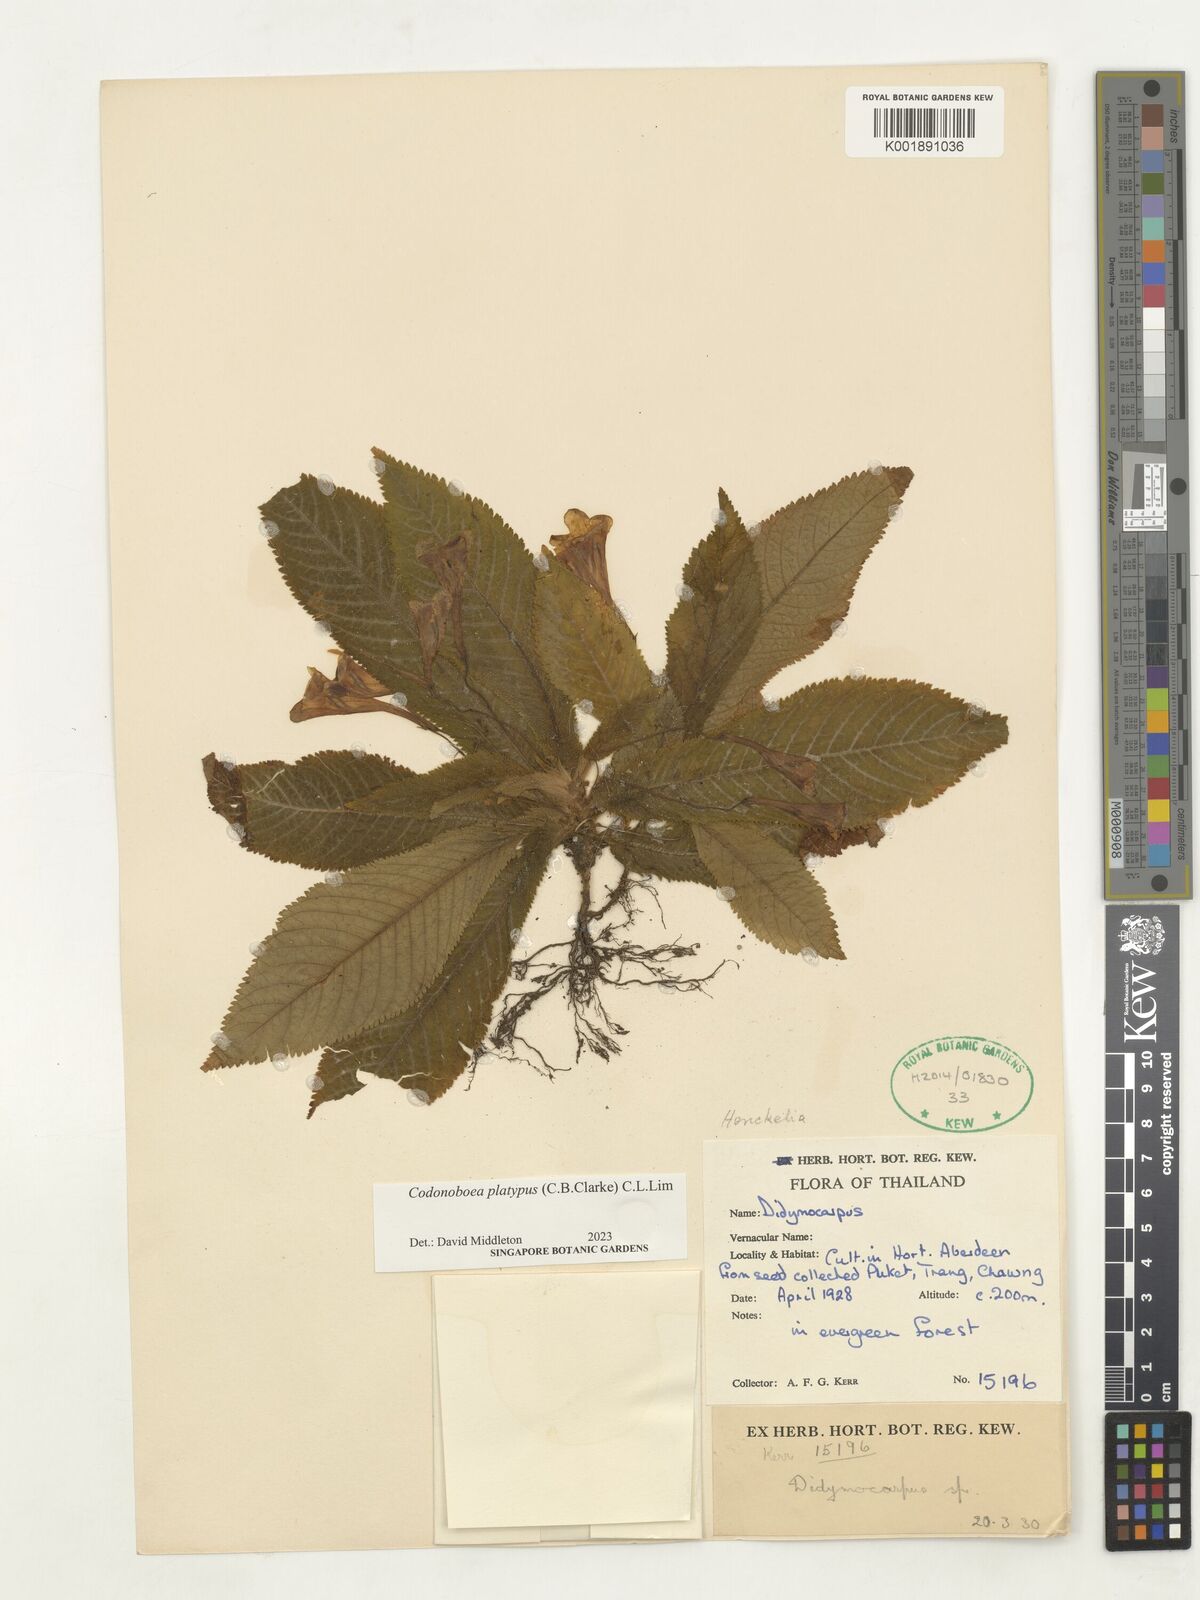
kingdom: Plantae
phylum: Tracheophyta
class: Magnoliopsida
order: Lamiales
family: Gesneriaceae
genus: Codonoboea
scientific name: Codonoboea platypus
